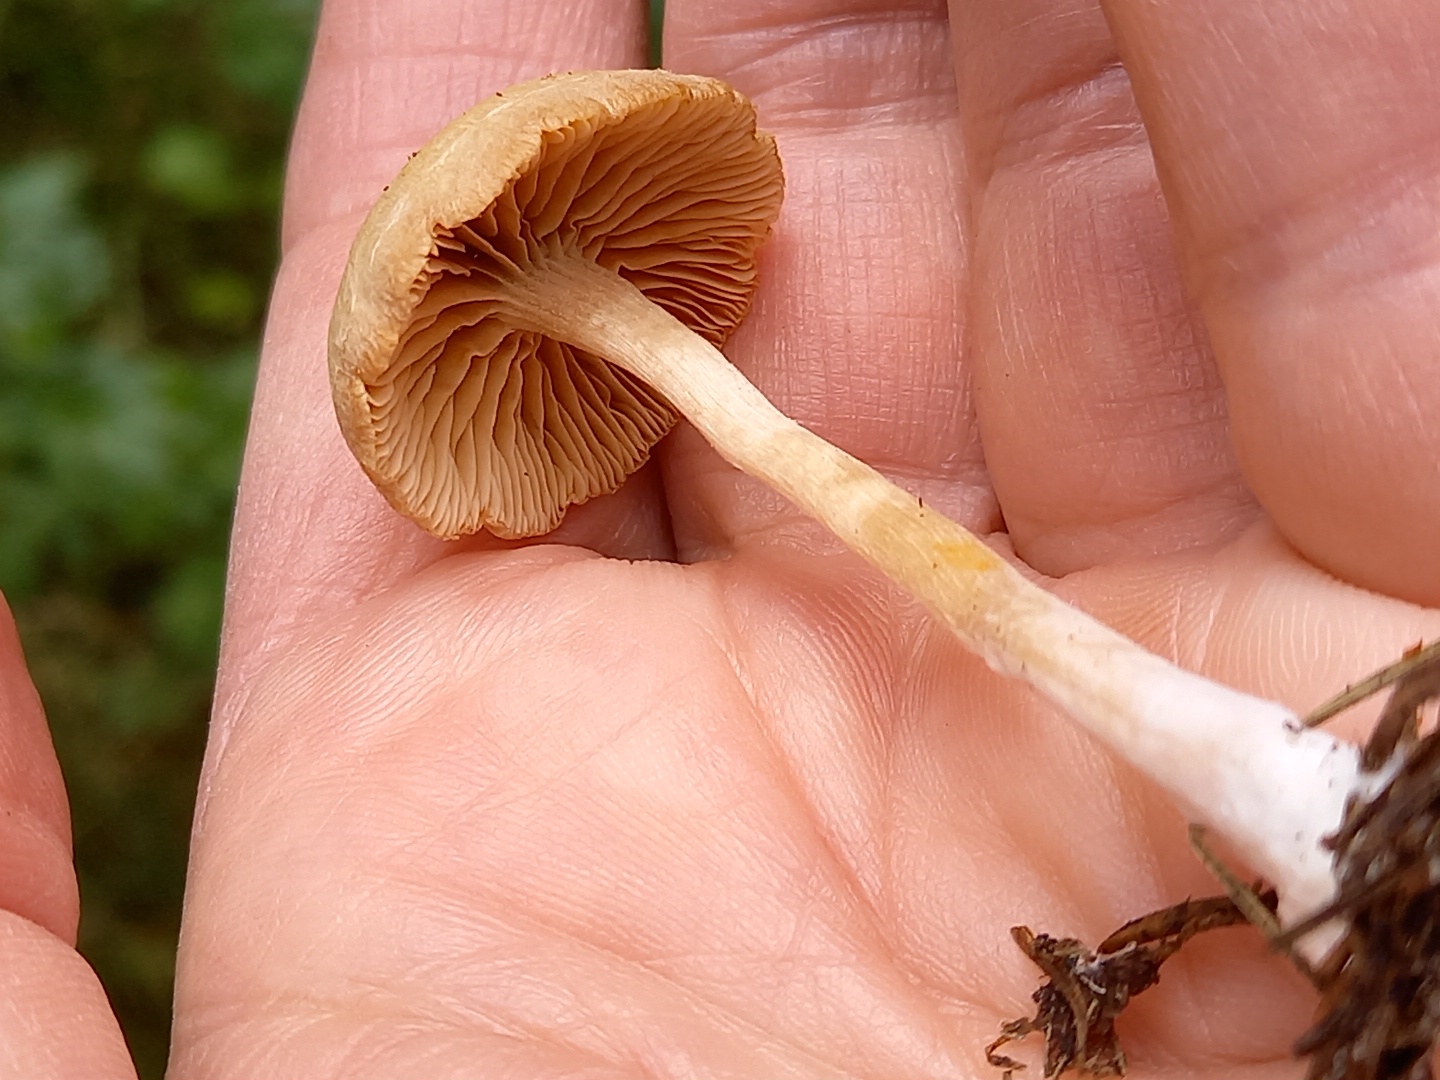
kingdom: Fungi
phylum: Basidiomycota
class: Agaricomycetes
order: Agaricales
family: Tubariaceae
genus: Tubaria
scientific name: Tubaria furfuracea
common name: kliddet fnughat
